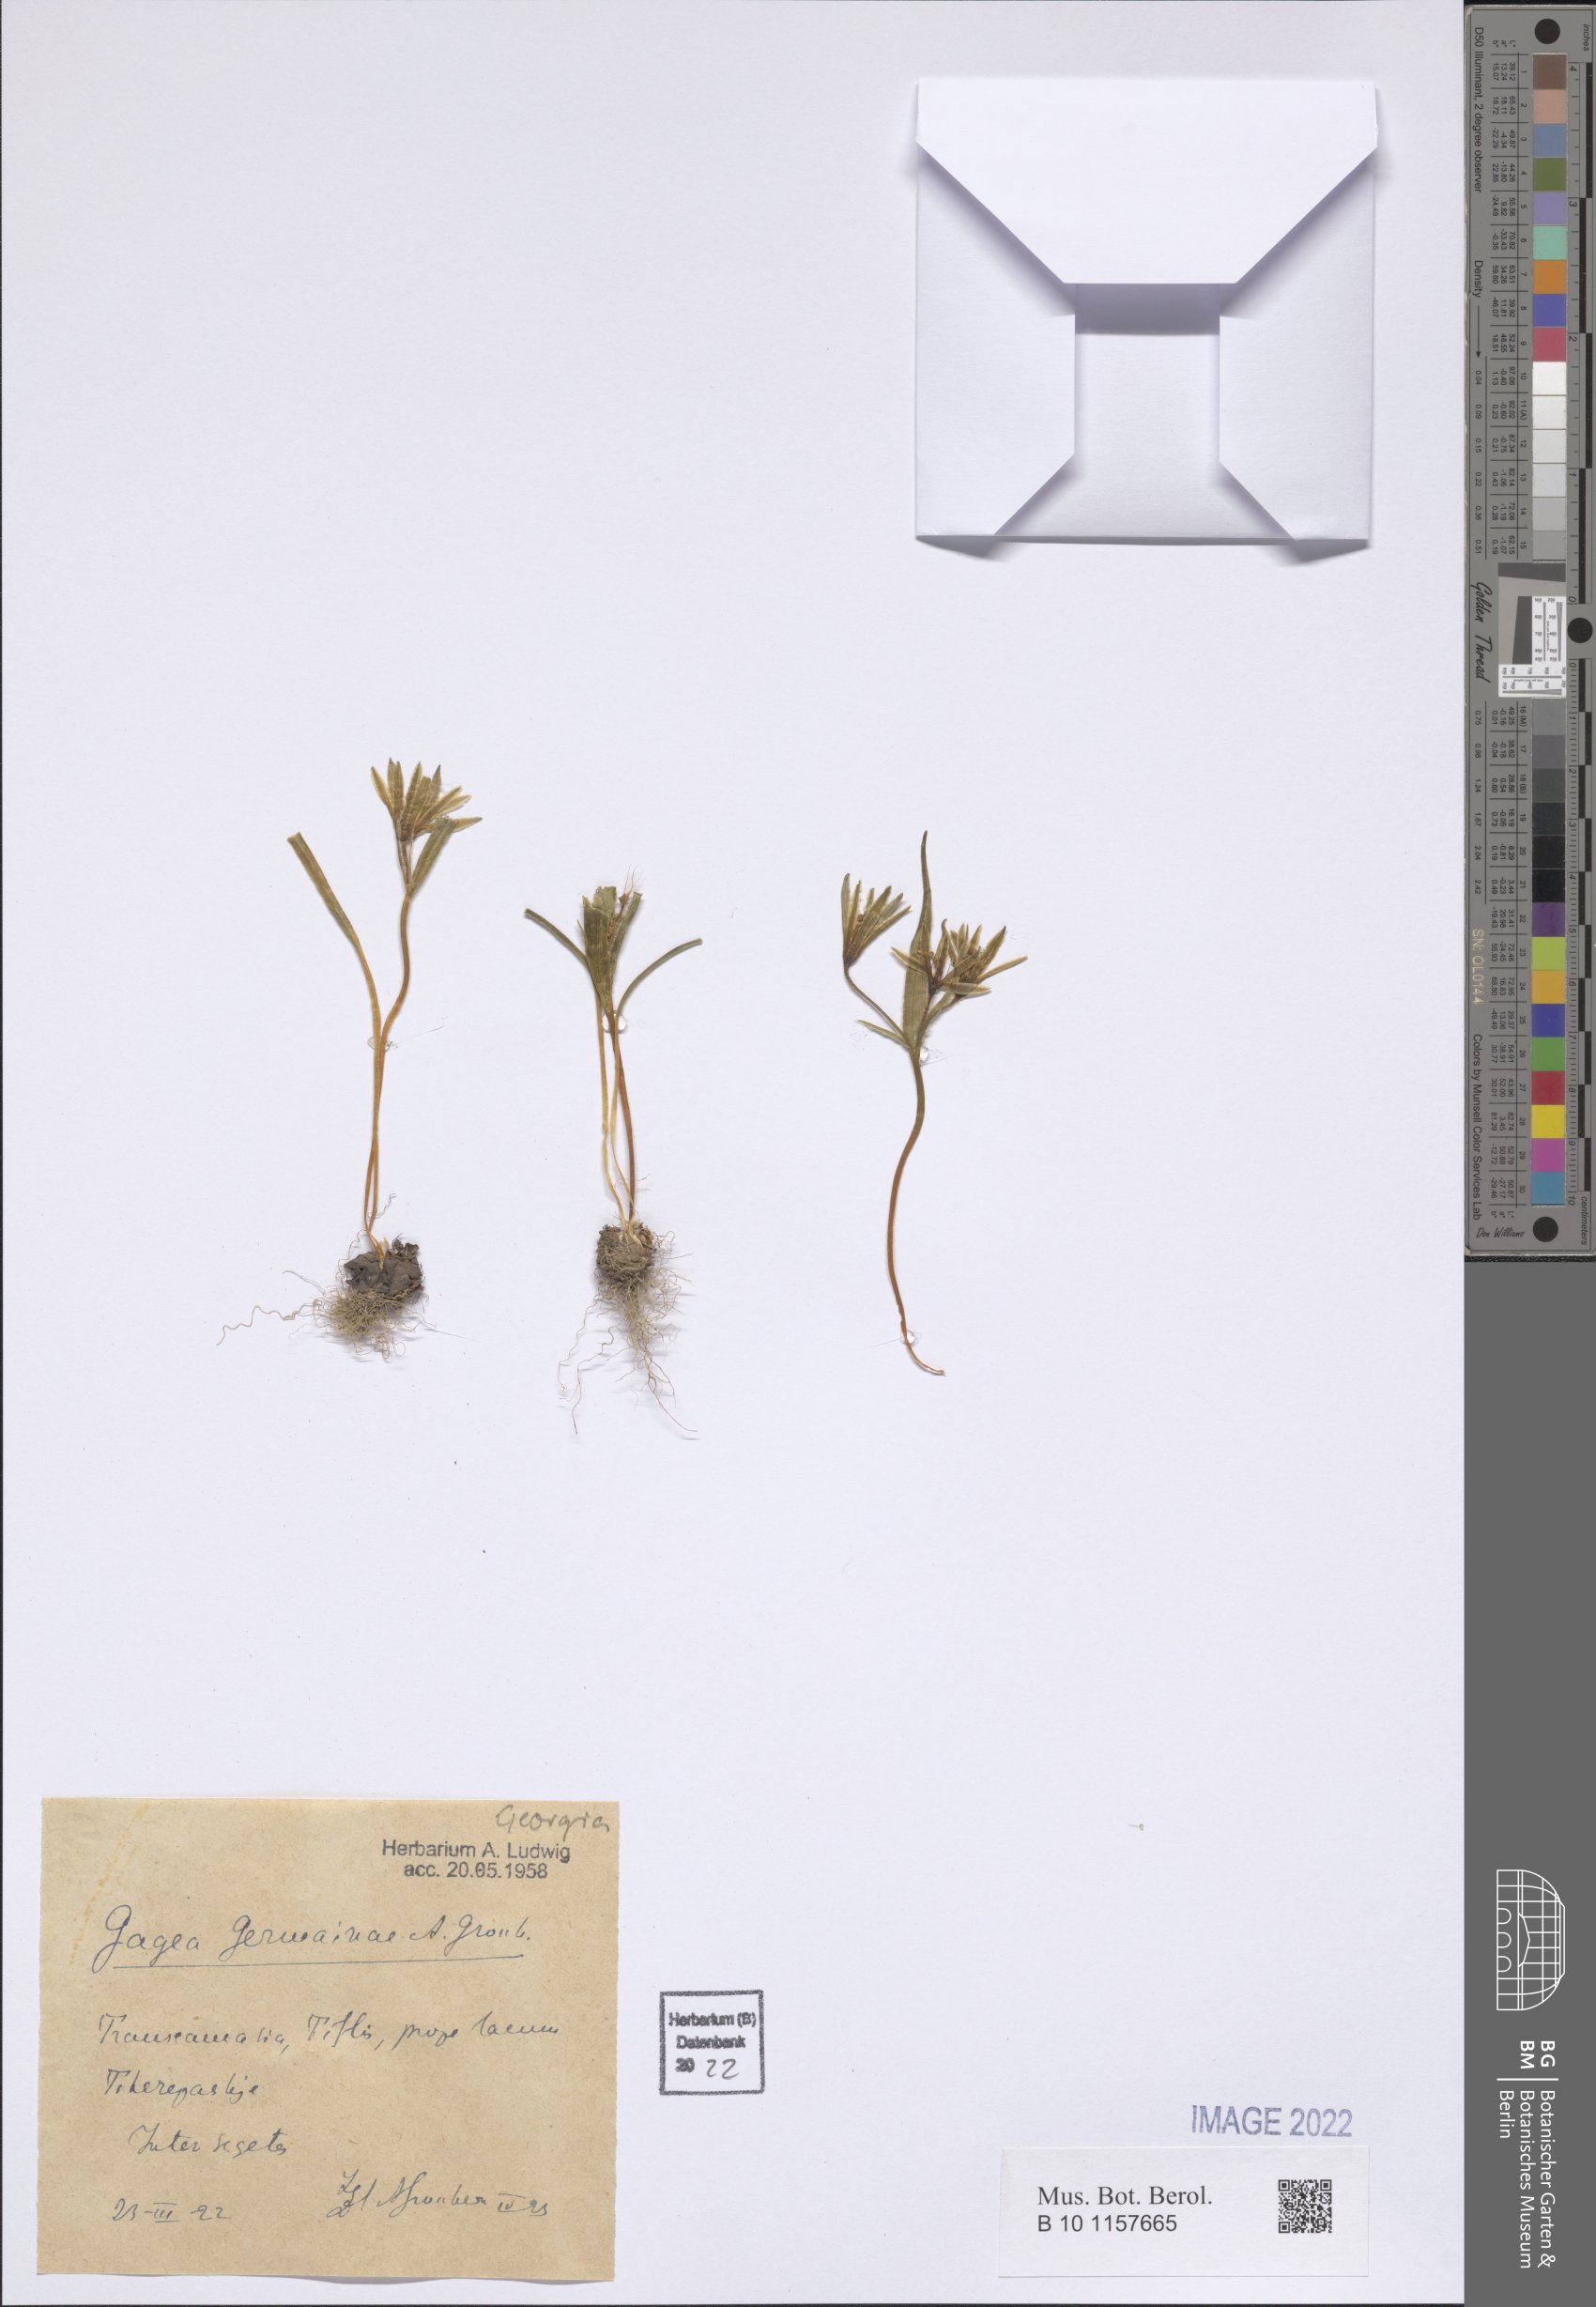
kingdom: Plantae
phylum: Tracheophyta
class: Liliopsida
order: Liliales
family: Liliaceae
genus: Gagea
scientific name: Gagea germainae
